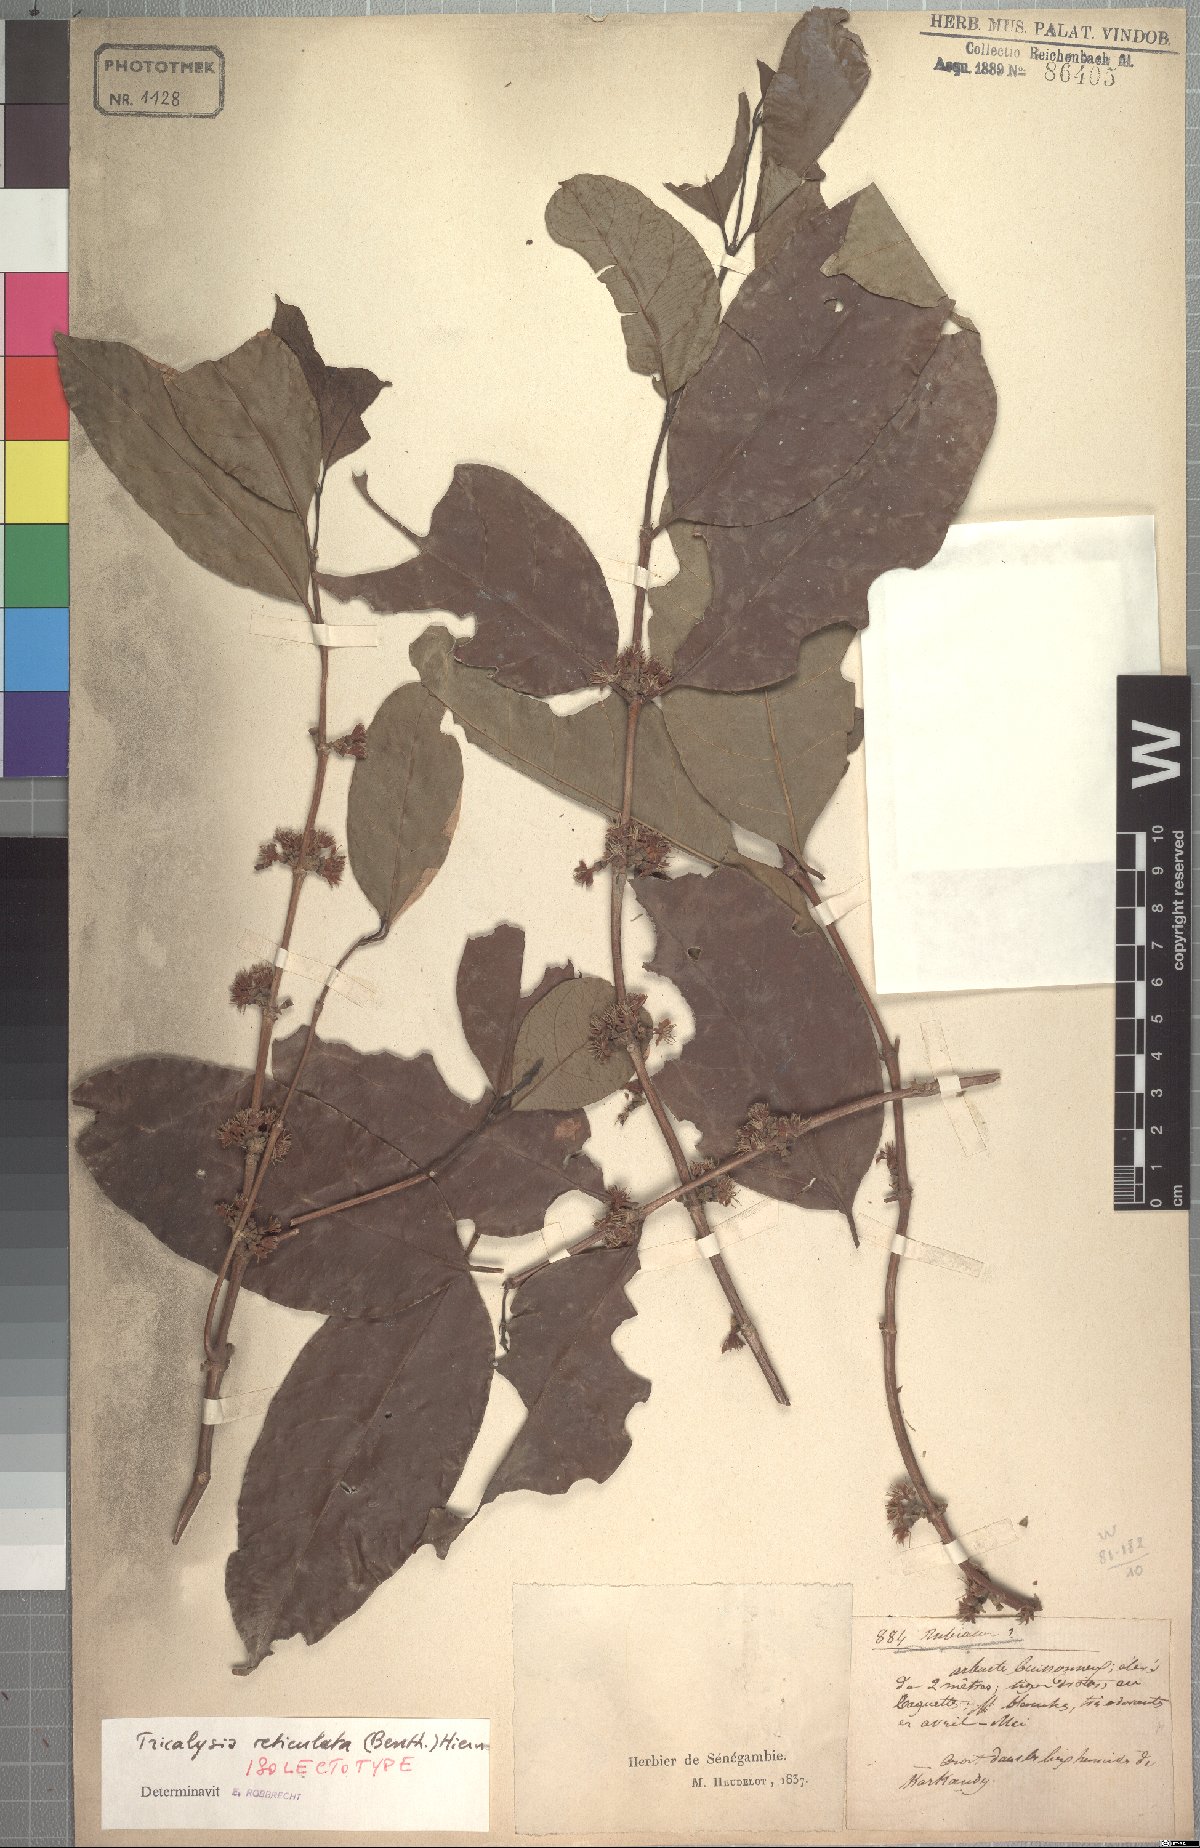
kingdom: Plantae
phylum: Tracheophyta
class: Magnoliopsida
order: Gentianales
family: Rubiaceae
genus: Tricalysia
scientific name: Tricalysia reticulata
